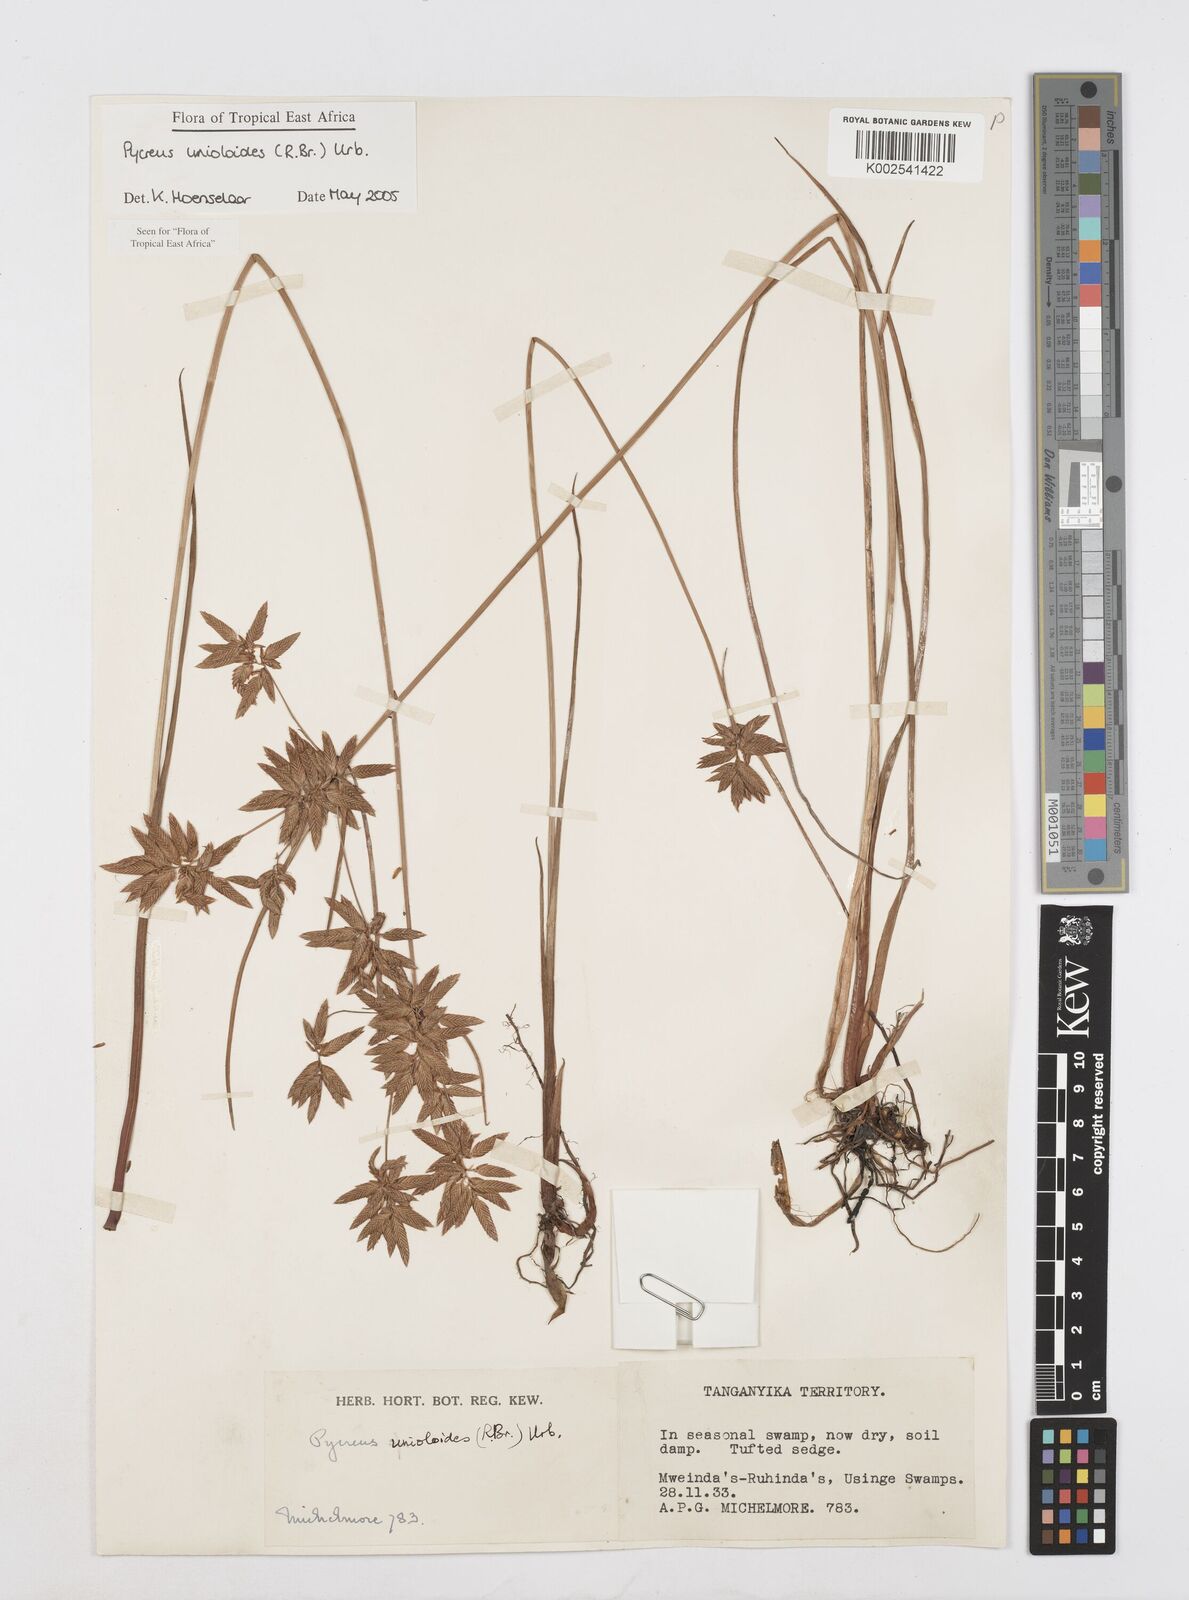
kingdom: Plantae
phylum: Tracheophyta
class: Liliopsida
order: Poales
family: Cyperaceae
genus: Cyperus
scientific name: Cyperus unioloides
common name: Uniola flatsedge
